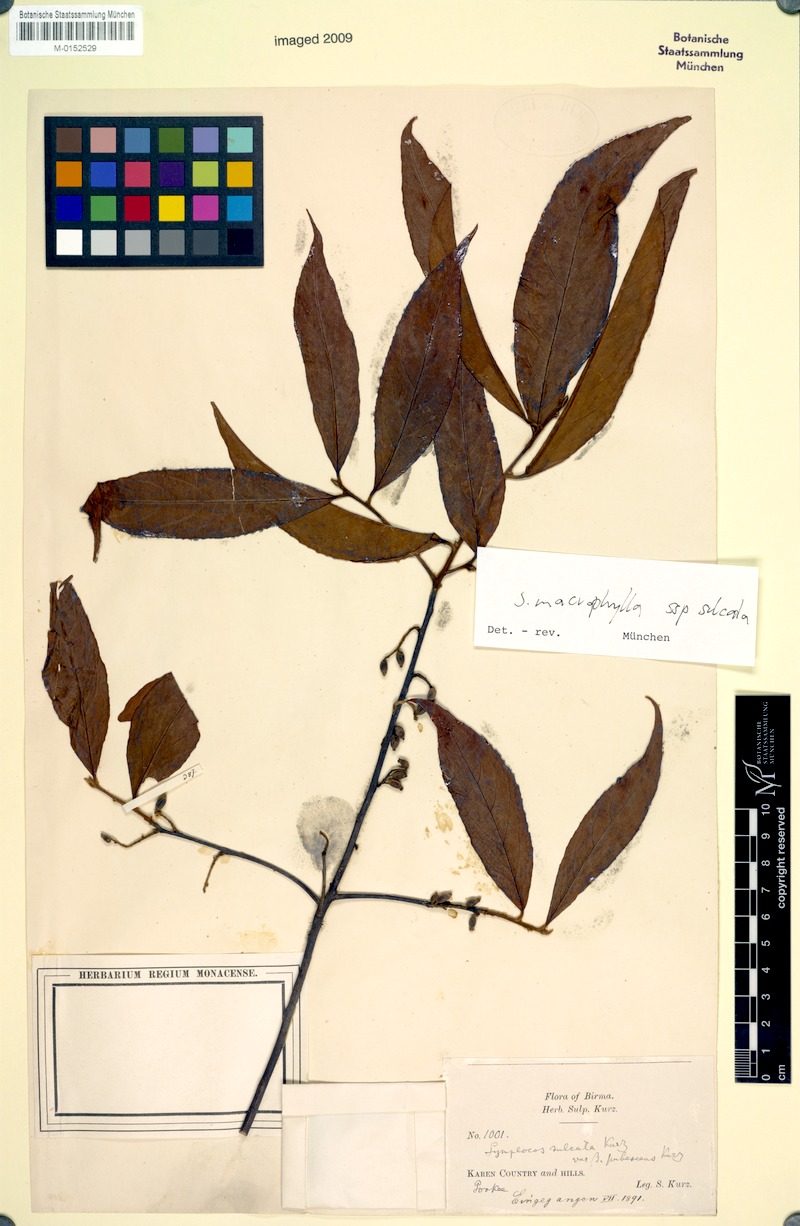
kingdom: Plantae
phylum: Tracheophyta
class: Magnoliopsida
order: Ericales
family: Symplocaceae
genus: Symplocos
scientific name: Symplocos sulcata
